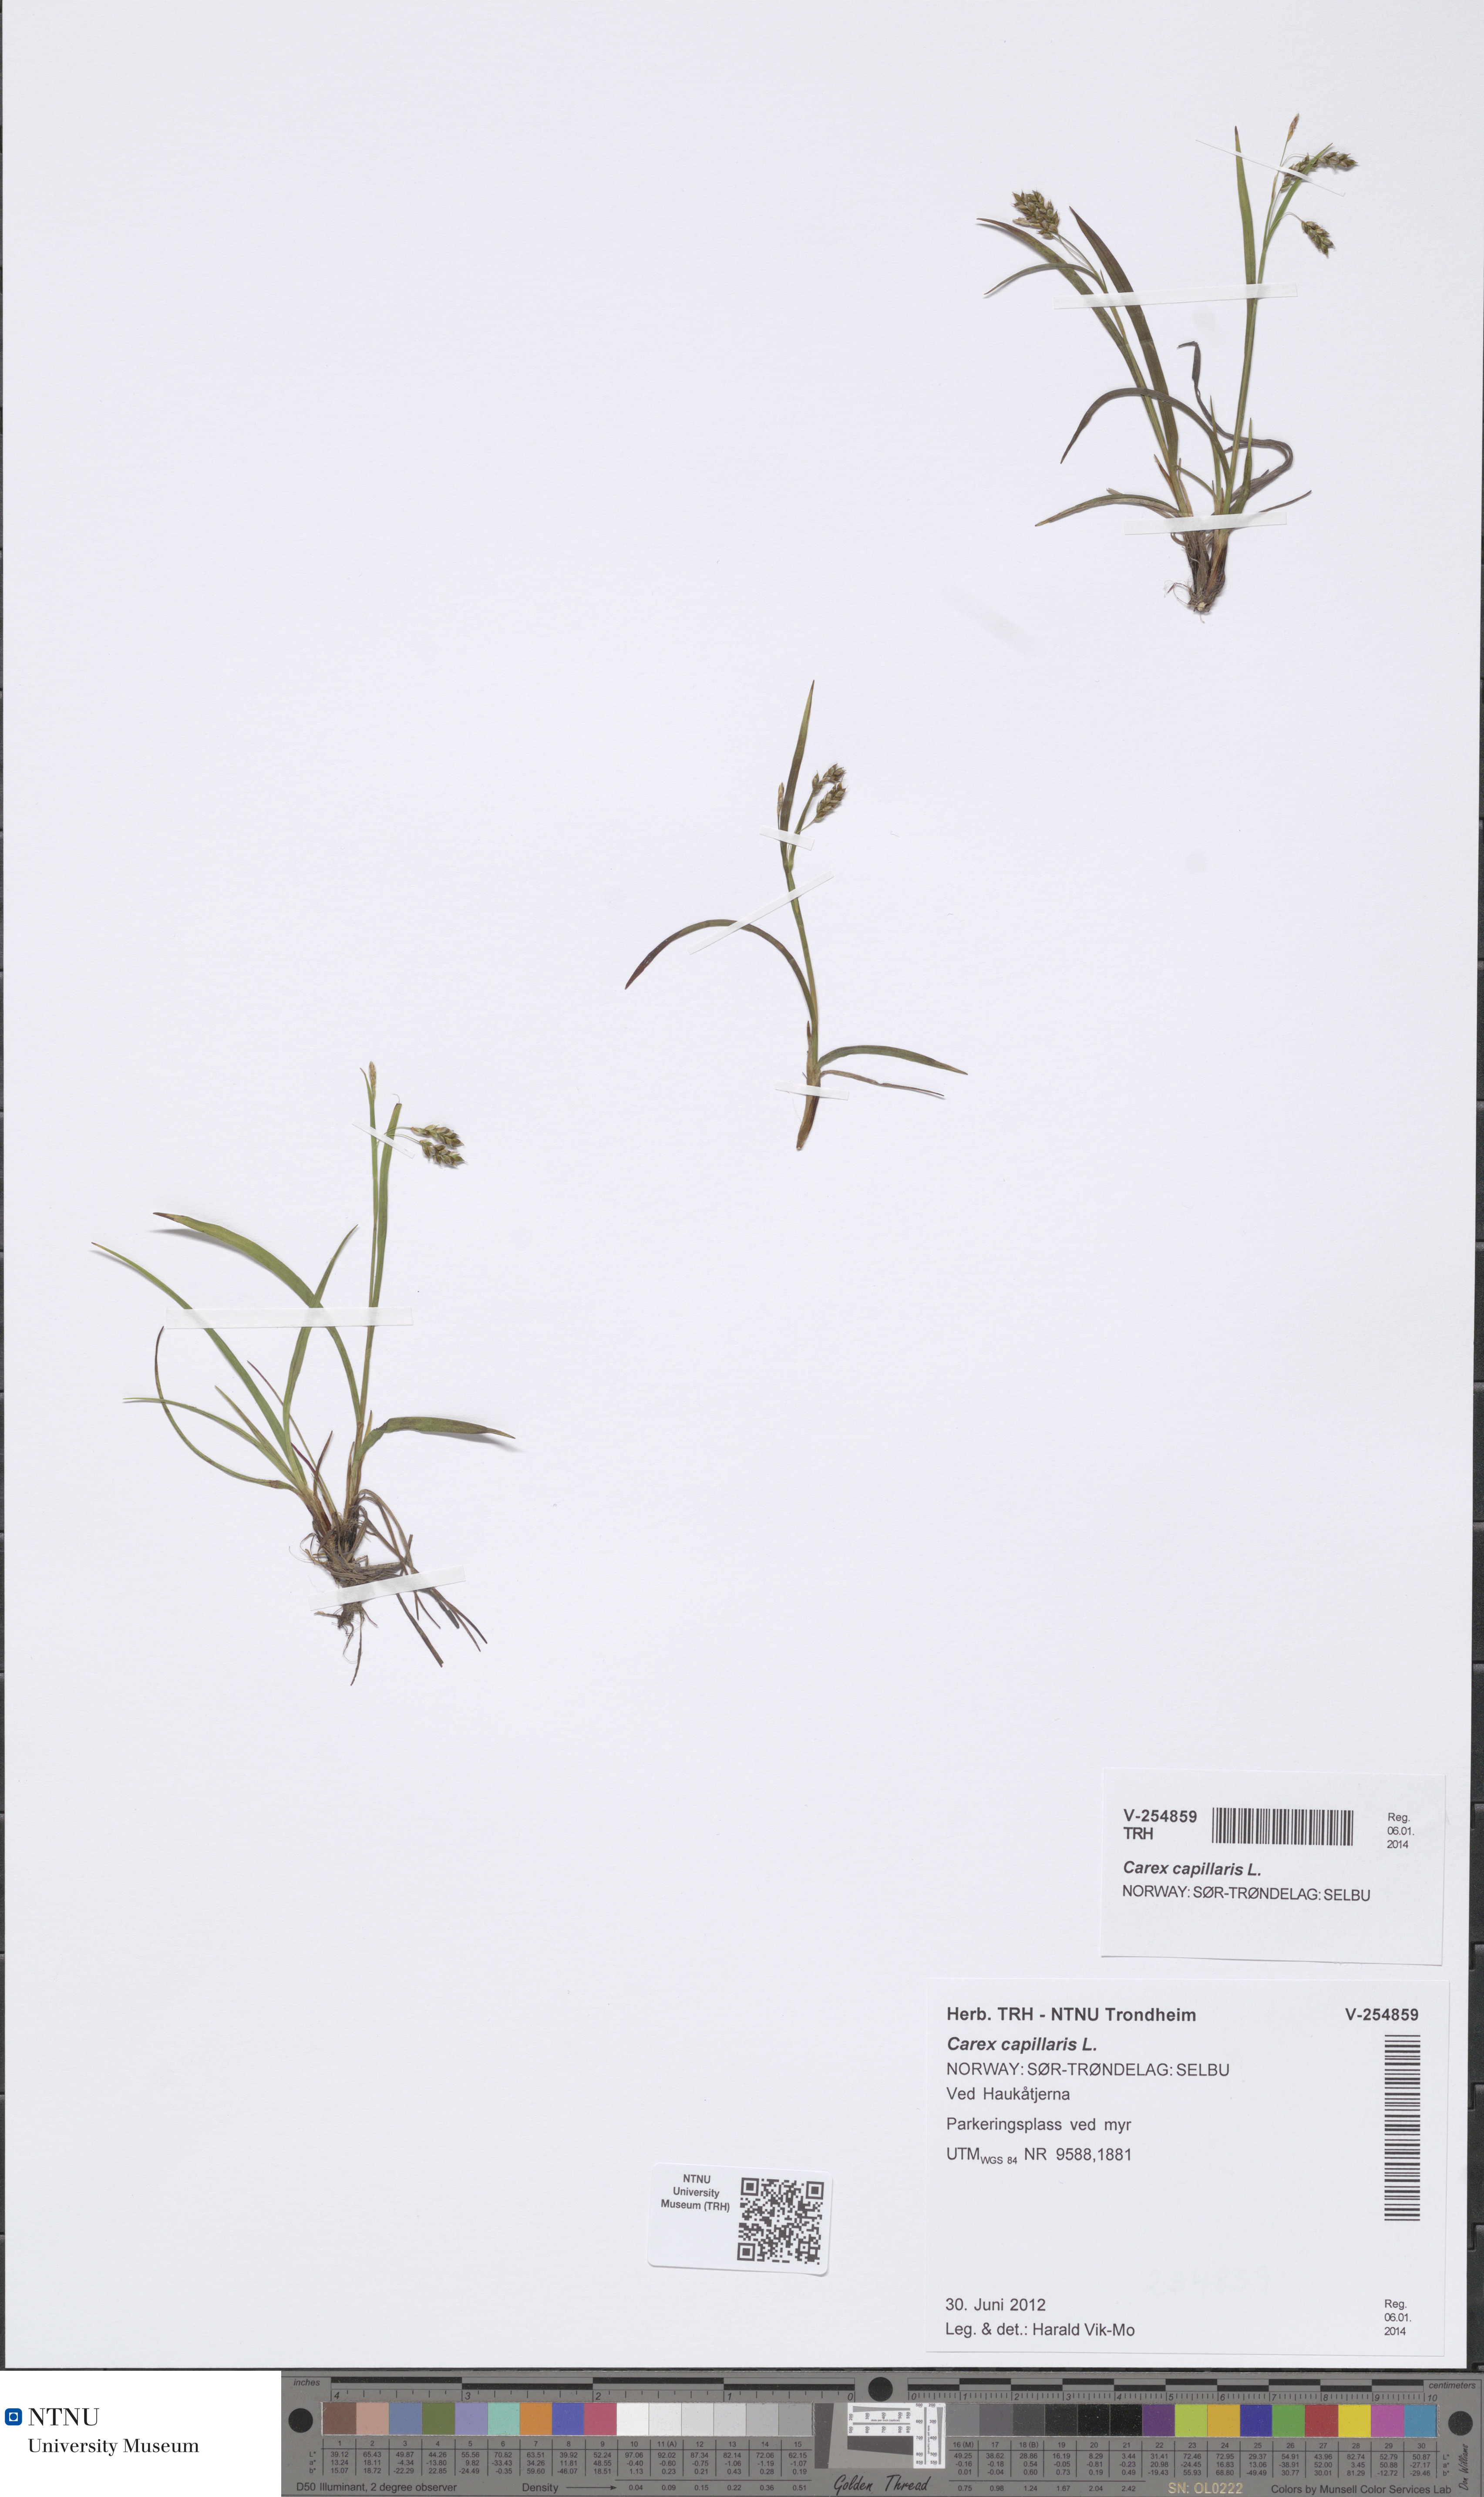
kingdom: Plantae
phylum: Tracheophyta
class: Liliopsida
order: Poales
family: Cyperaceae
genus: Carex
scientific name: Carex capillaris
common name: Hair sedge
